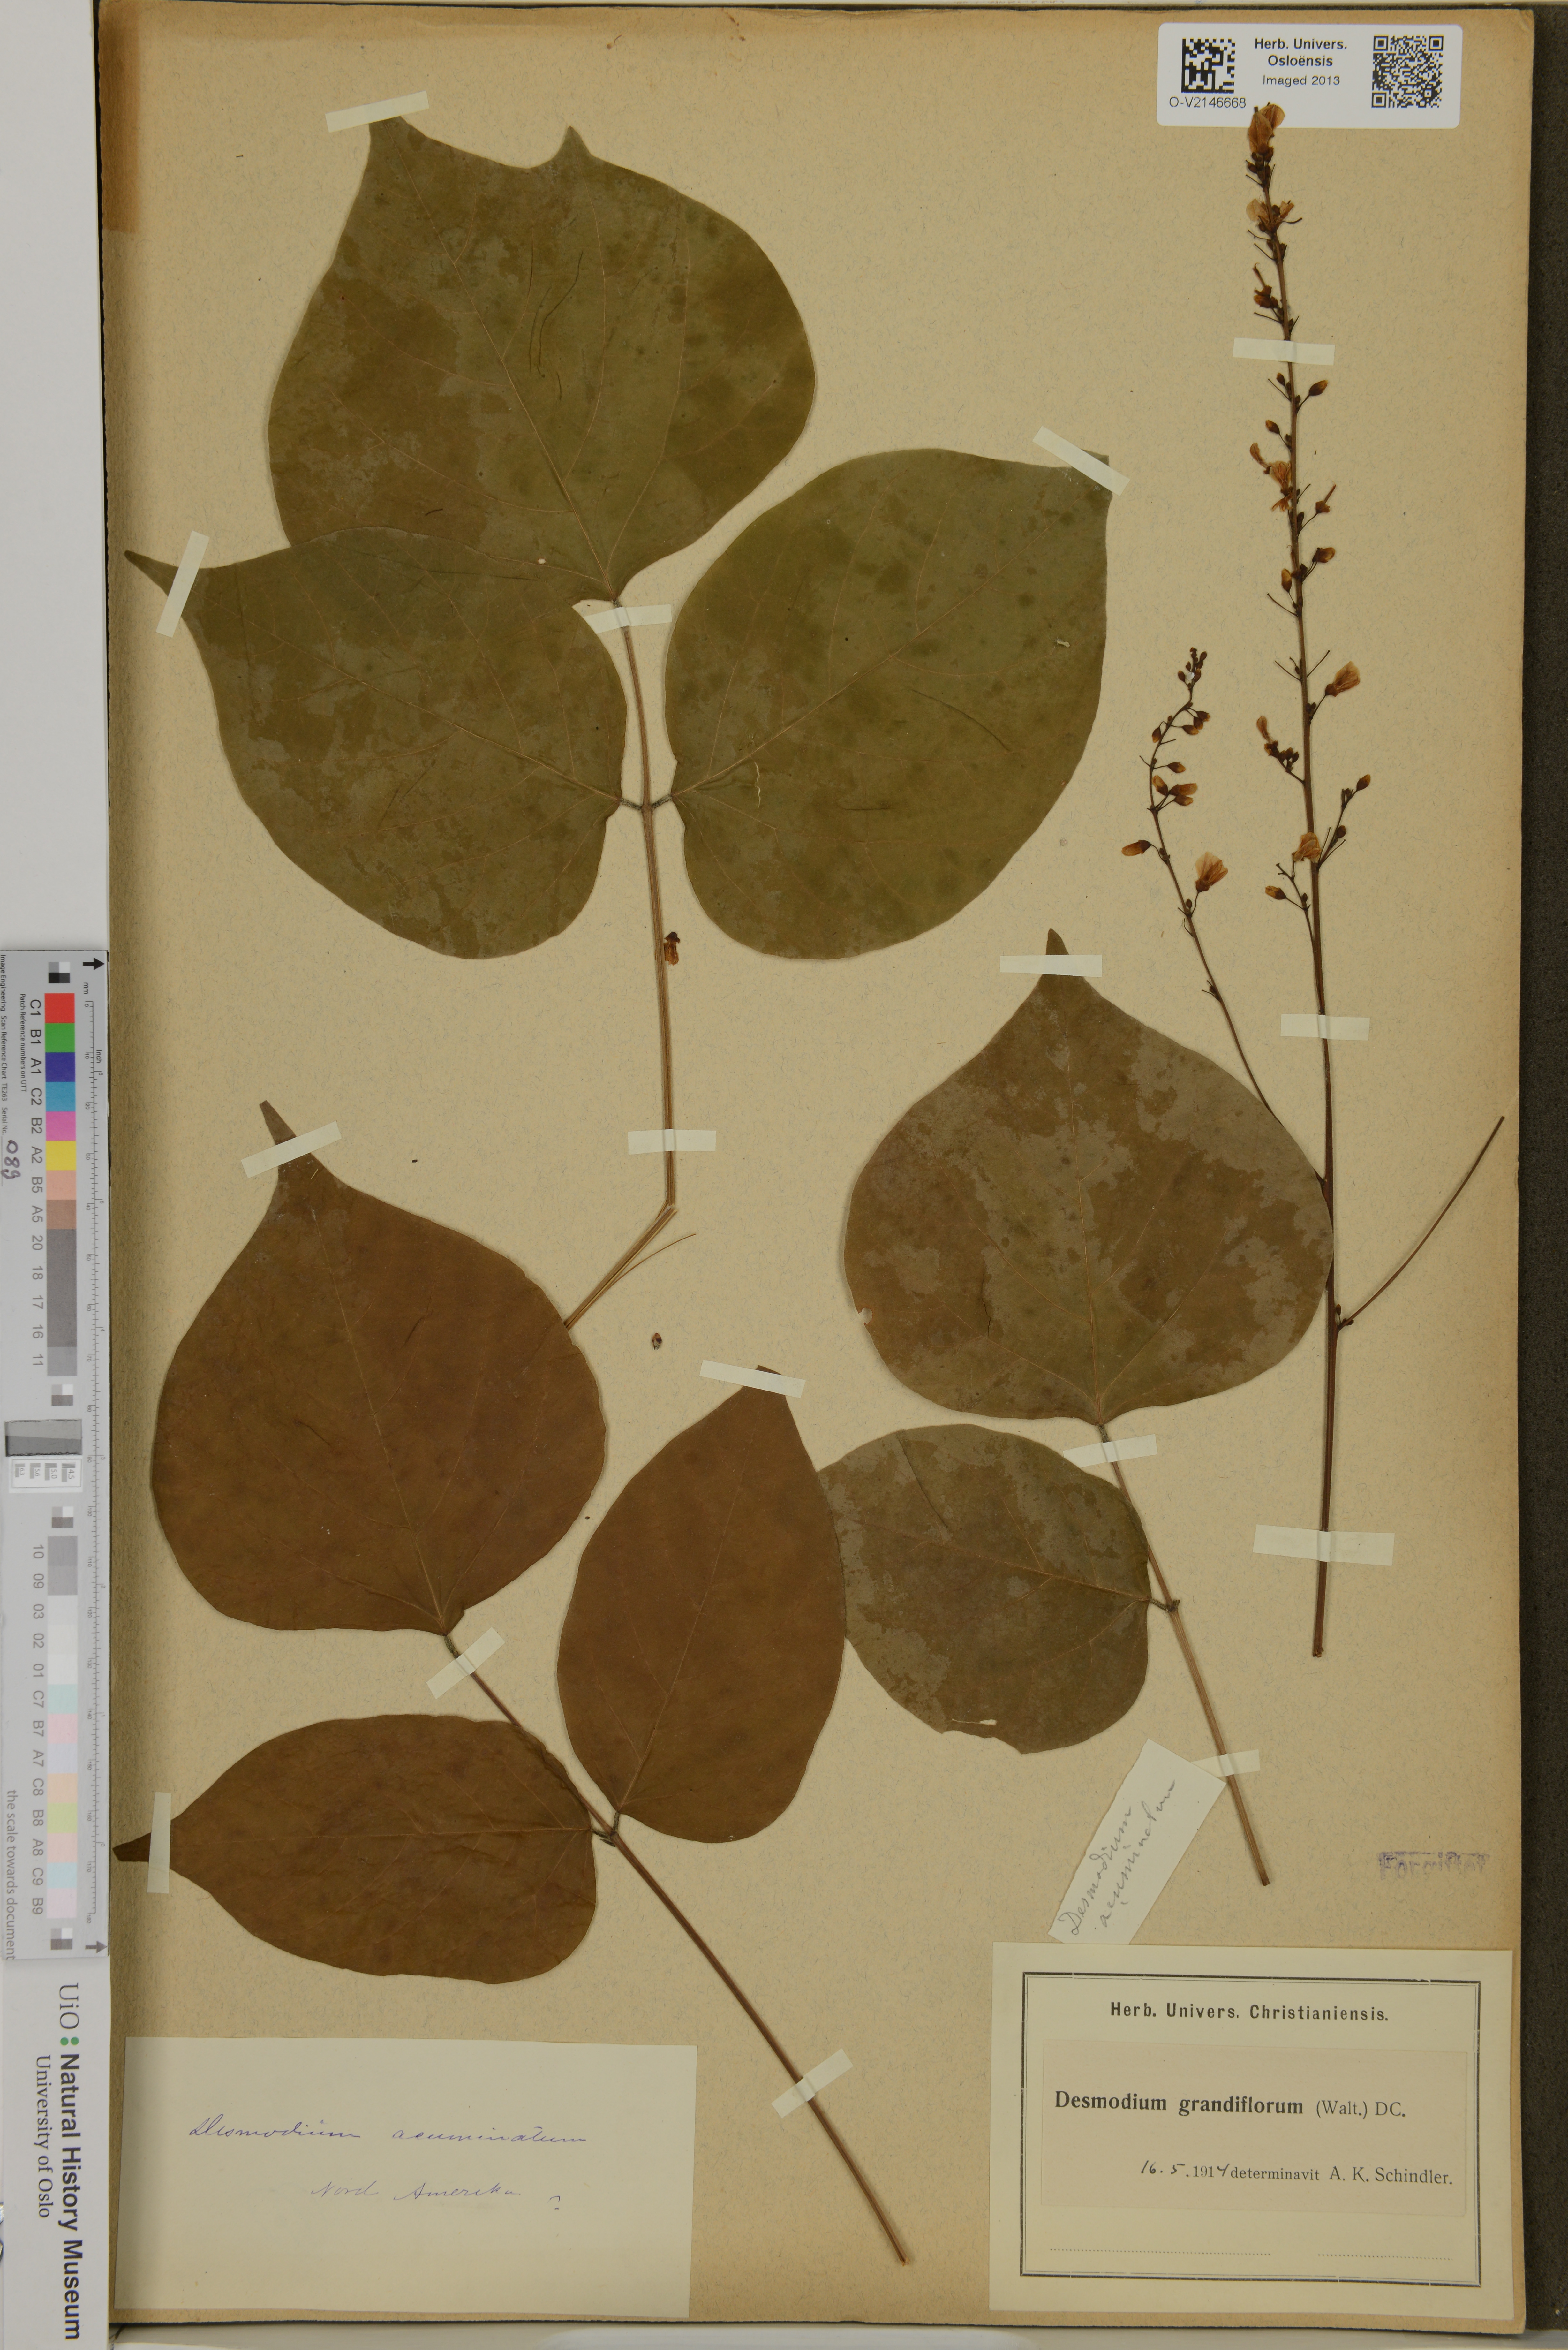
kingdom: Plantae
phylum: Tracheophyta
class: Magnoliopsida
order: Fabales
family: Fabaceae
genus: Hylodesmum
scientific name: Hylodesmum glutinosum
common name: Clustered-leaved tick-trefoil
